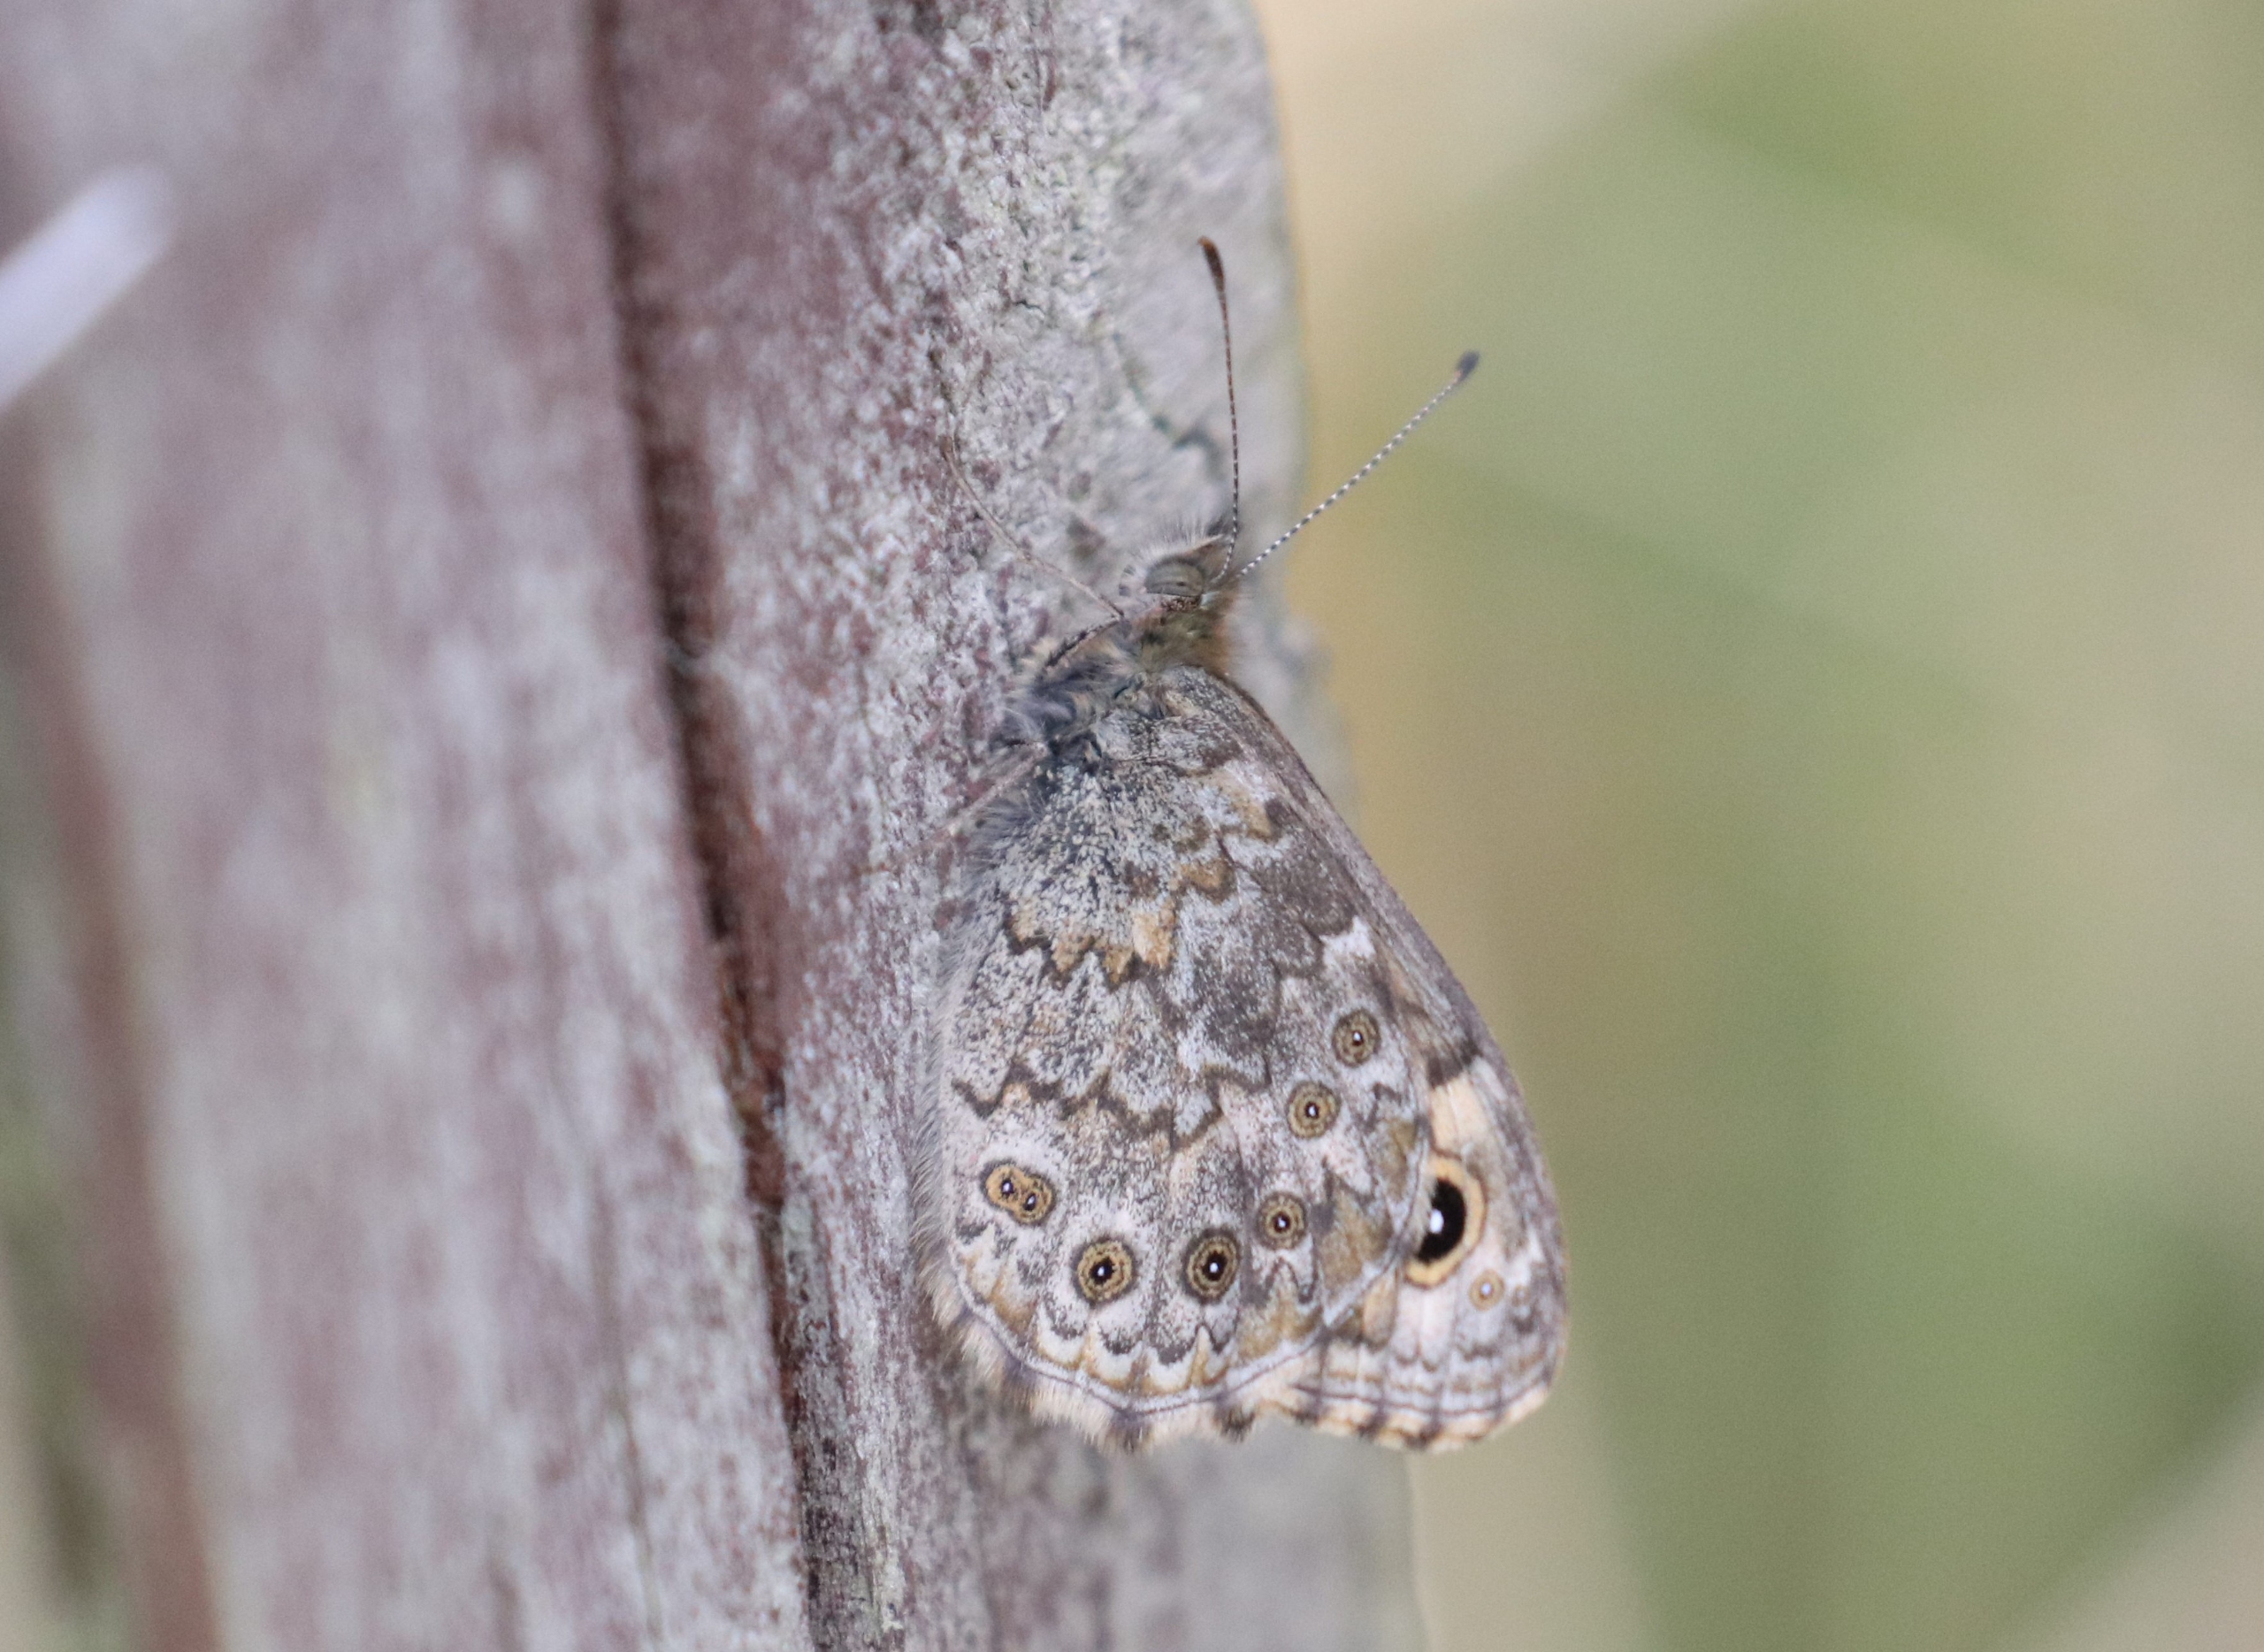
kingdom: Animalia
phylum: Arthropoda
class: Insecta
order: Lepidoptera
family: Nymphalidae
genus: Pararge
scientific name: Pararge Lasiommata megera
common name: Vejrandøje
